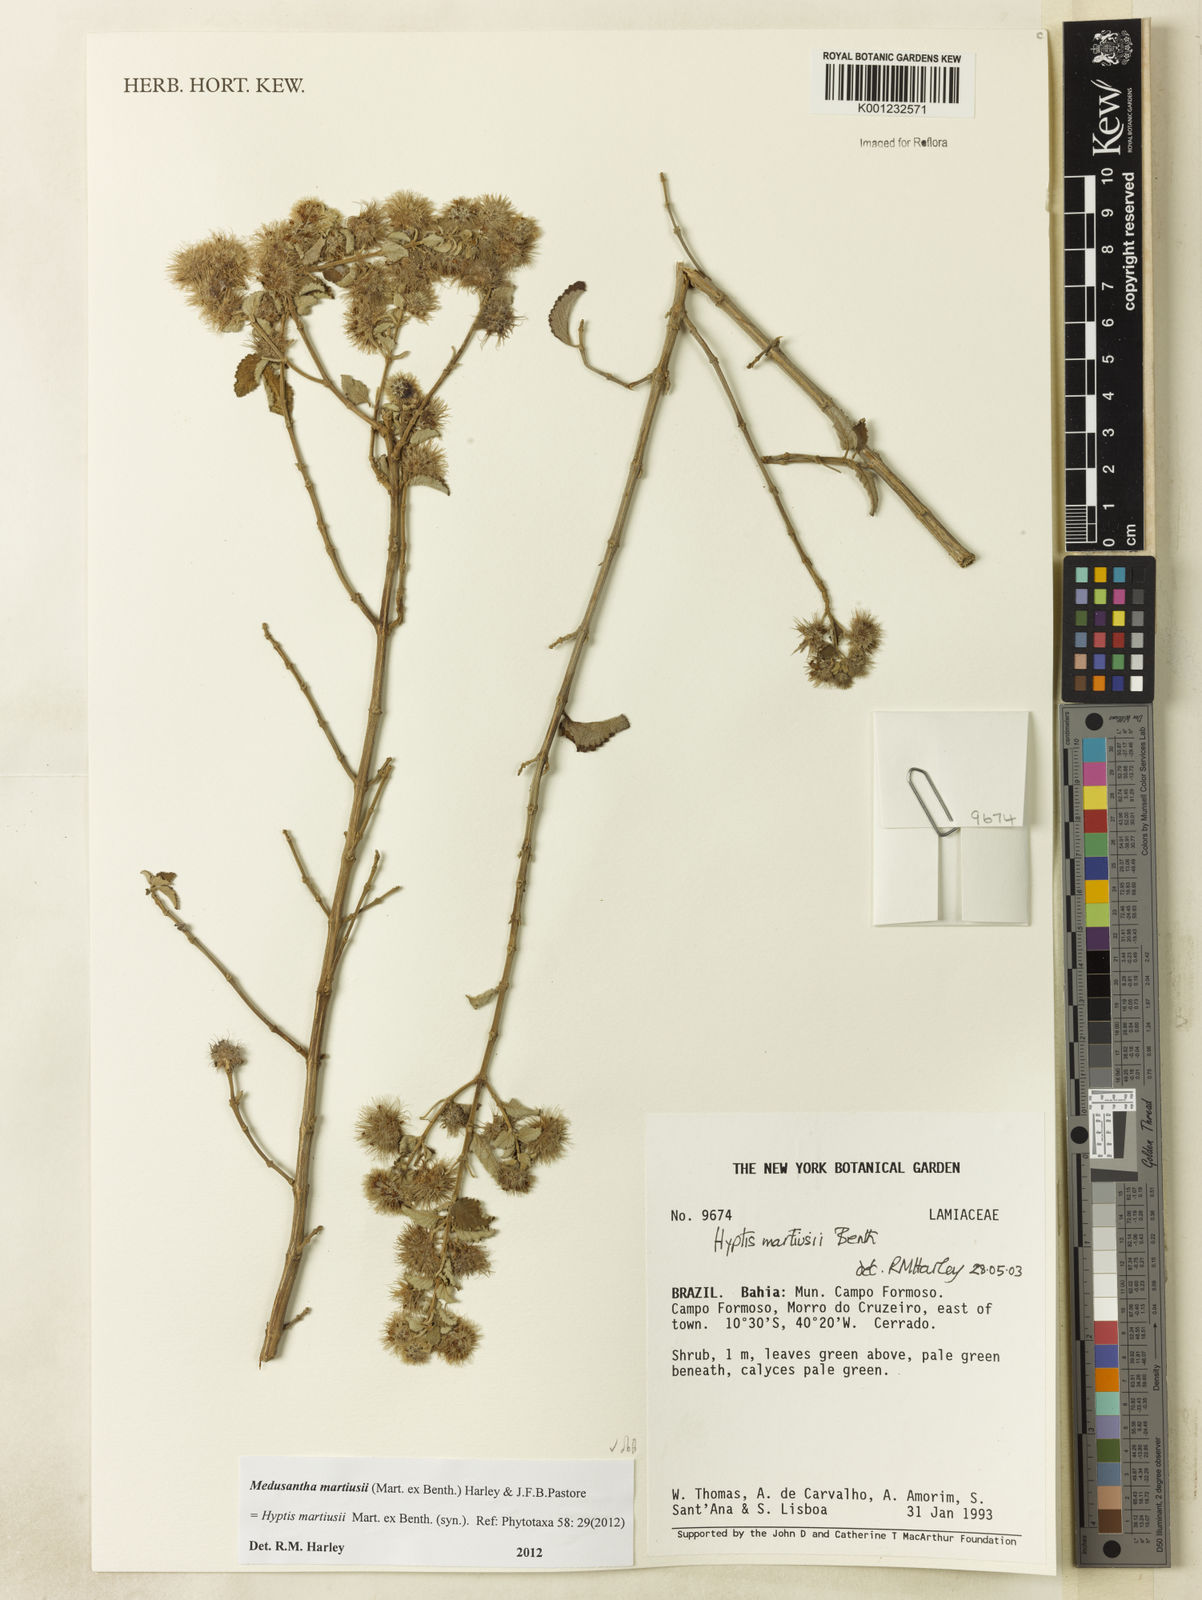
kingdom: Plantae
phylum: Tracheophyta
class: Magnoliopsida
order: Lamiales
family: Lamiaceae
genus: Medusantha
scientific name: Medusantha martiusii
